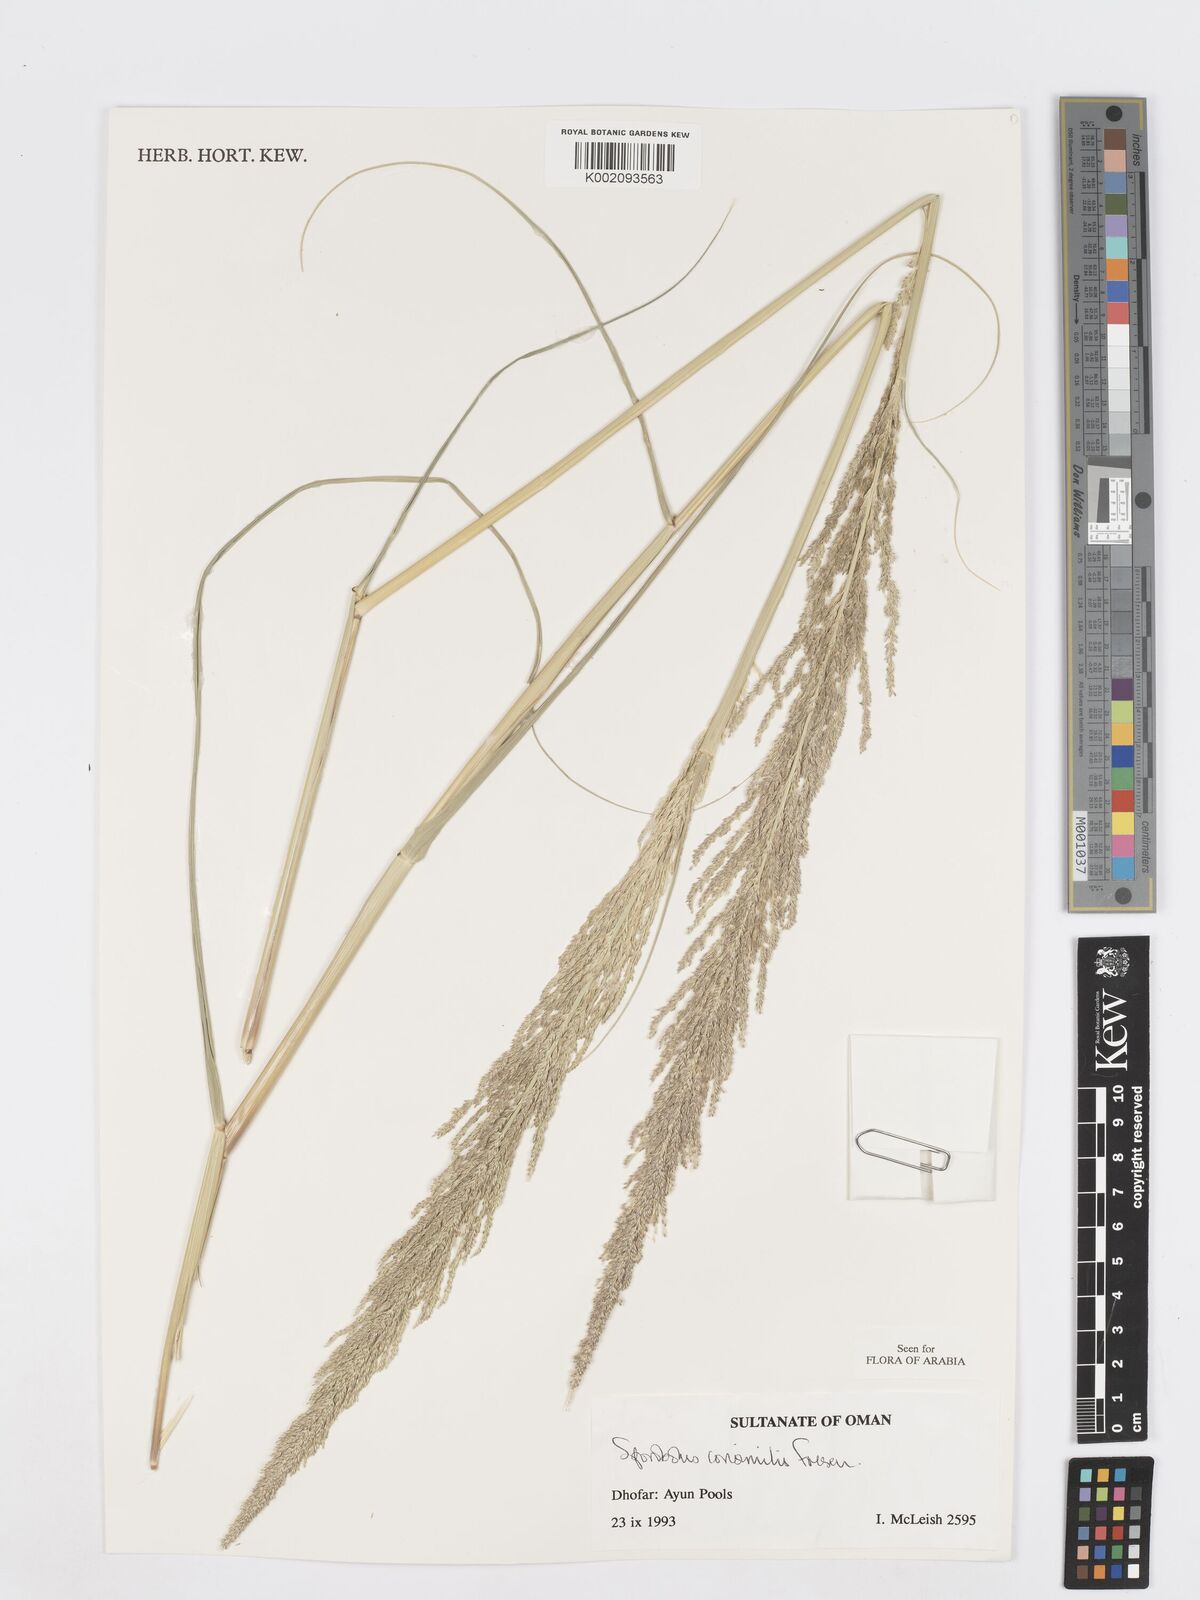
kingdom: Plantae
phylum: Tracheophyta
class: Liliopsida
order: Poales
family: Poaceae
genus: Sporobolus
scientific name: Sporobolus consimilis
